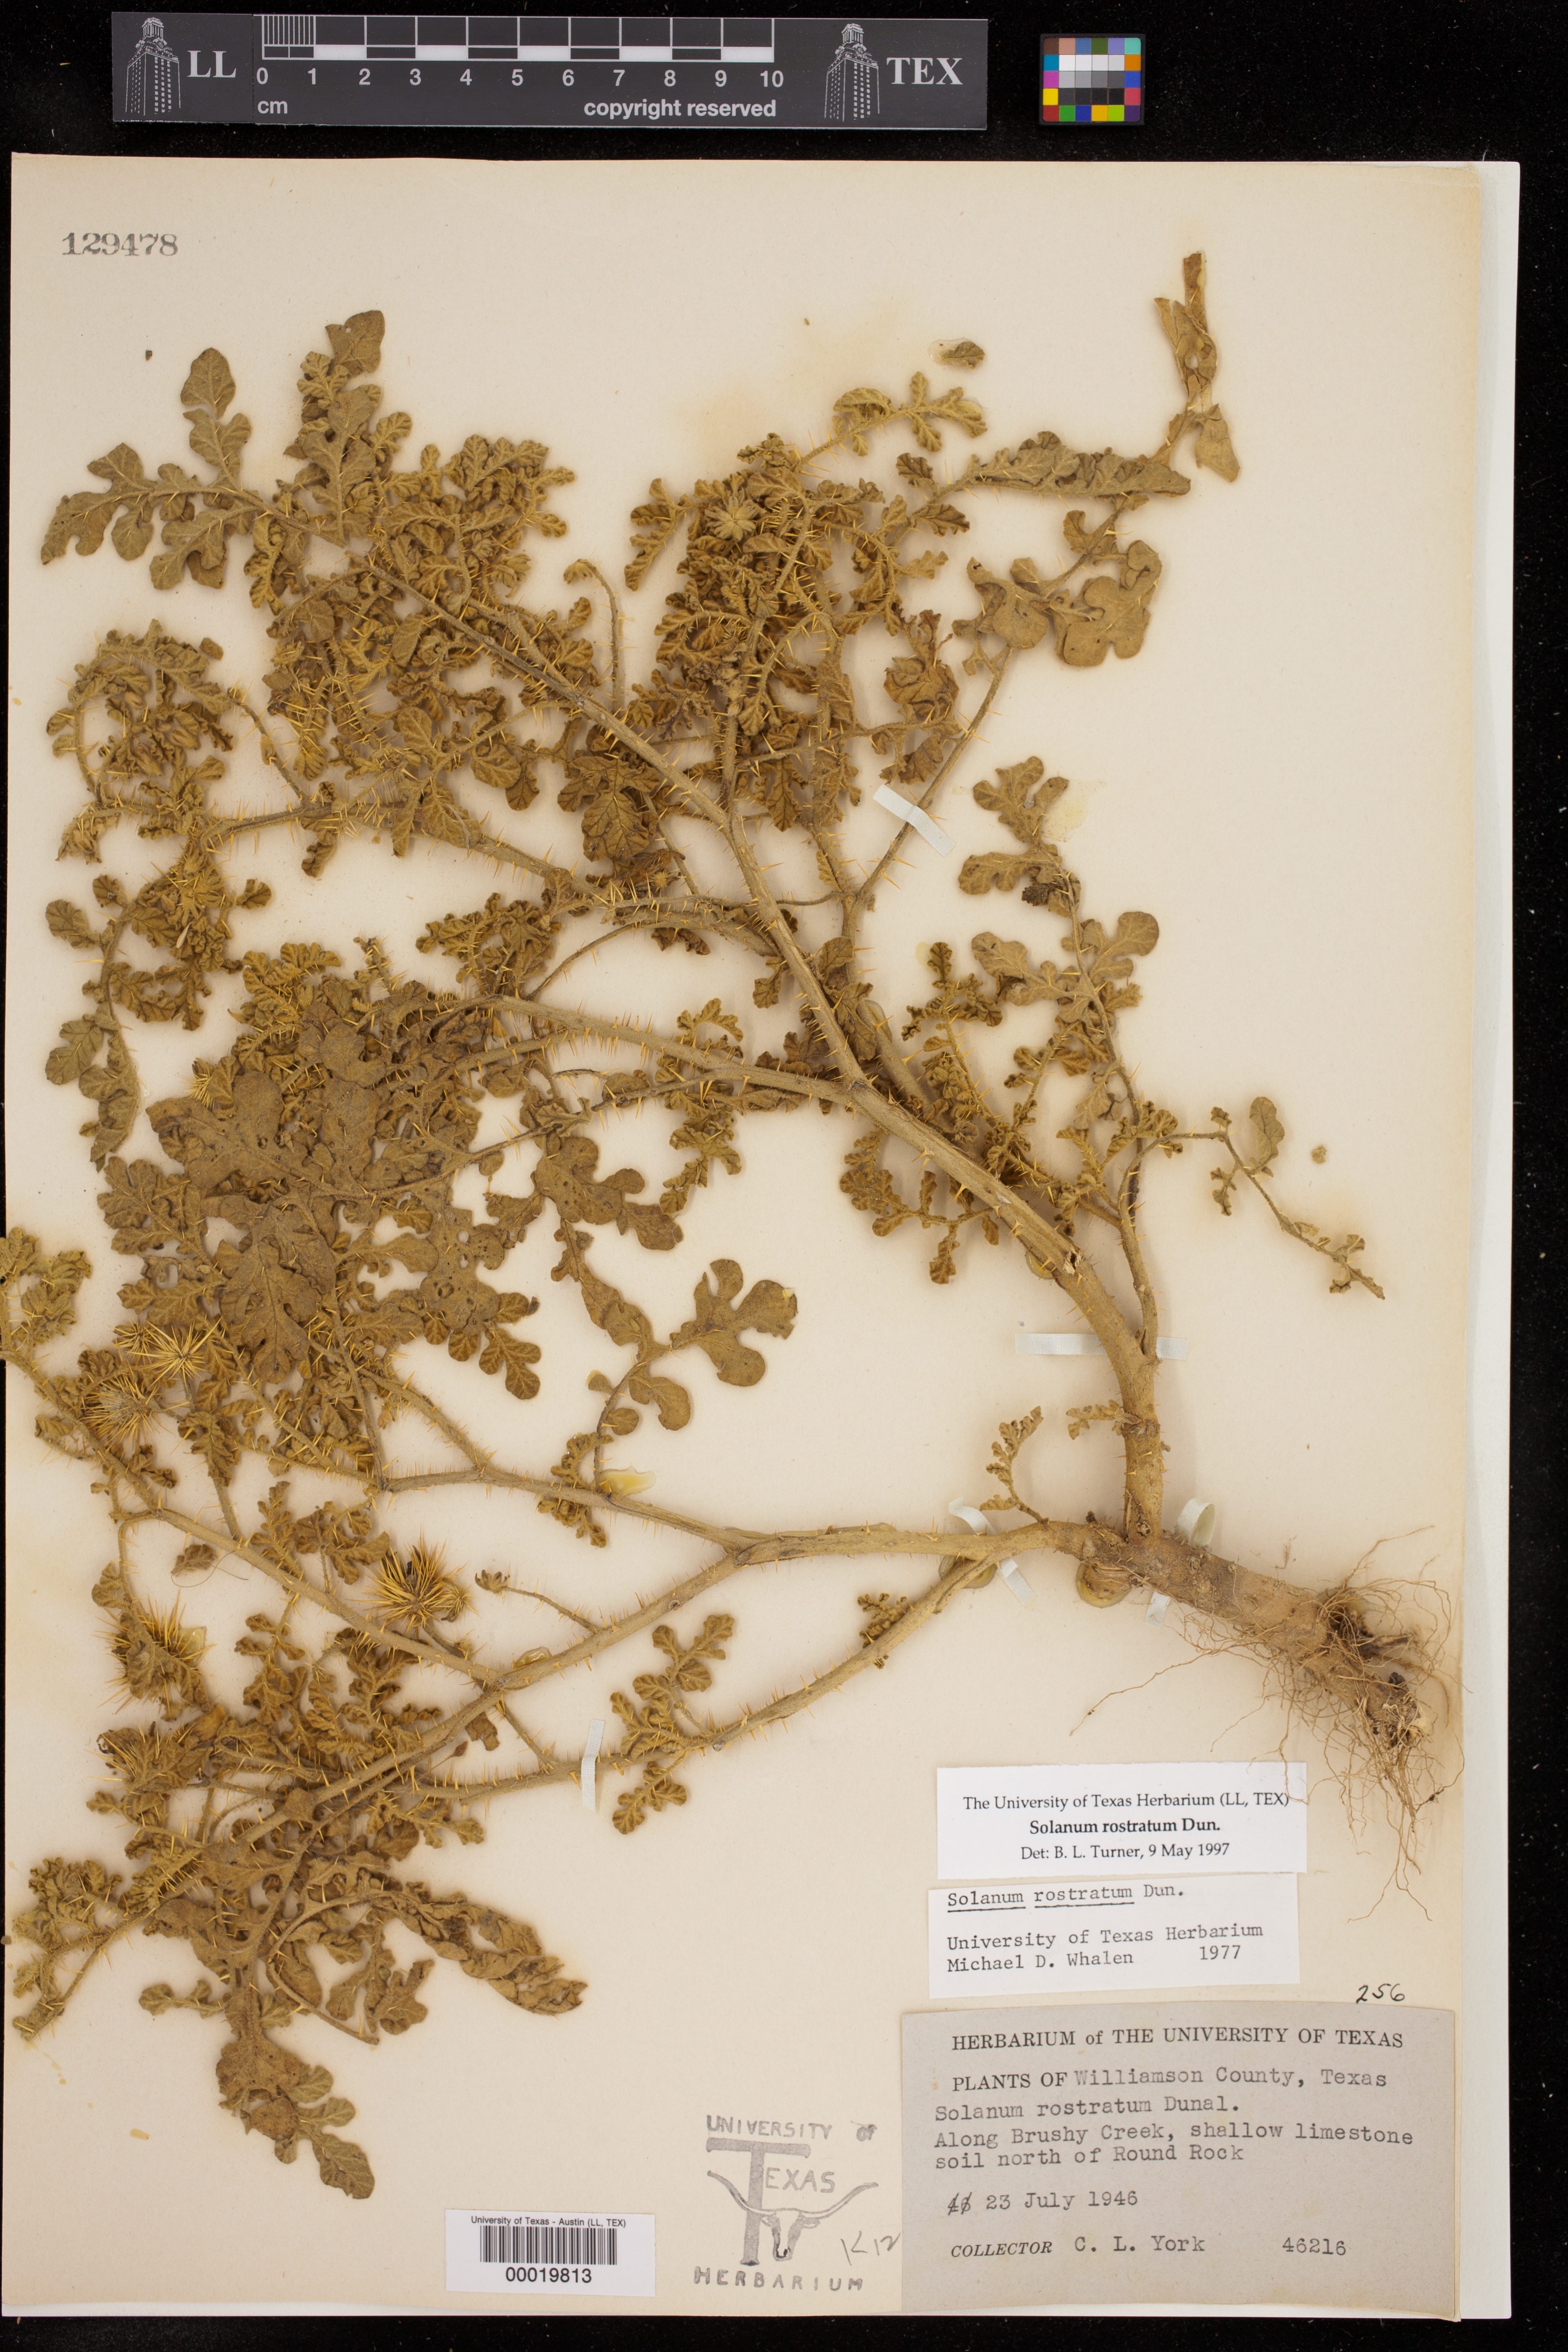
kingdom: Plantae
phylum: Tracheophyta
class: Magnoliopsida
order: Solanales
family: Solanaceae
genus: Solanum
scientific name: Solanum angustifolium
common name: Buffalobur nightshade
